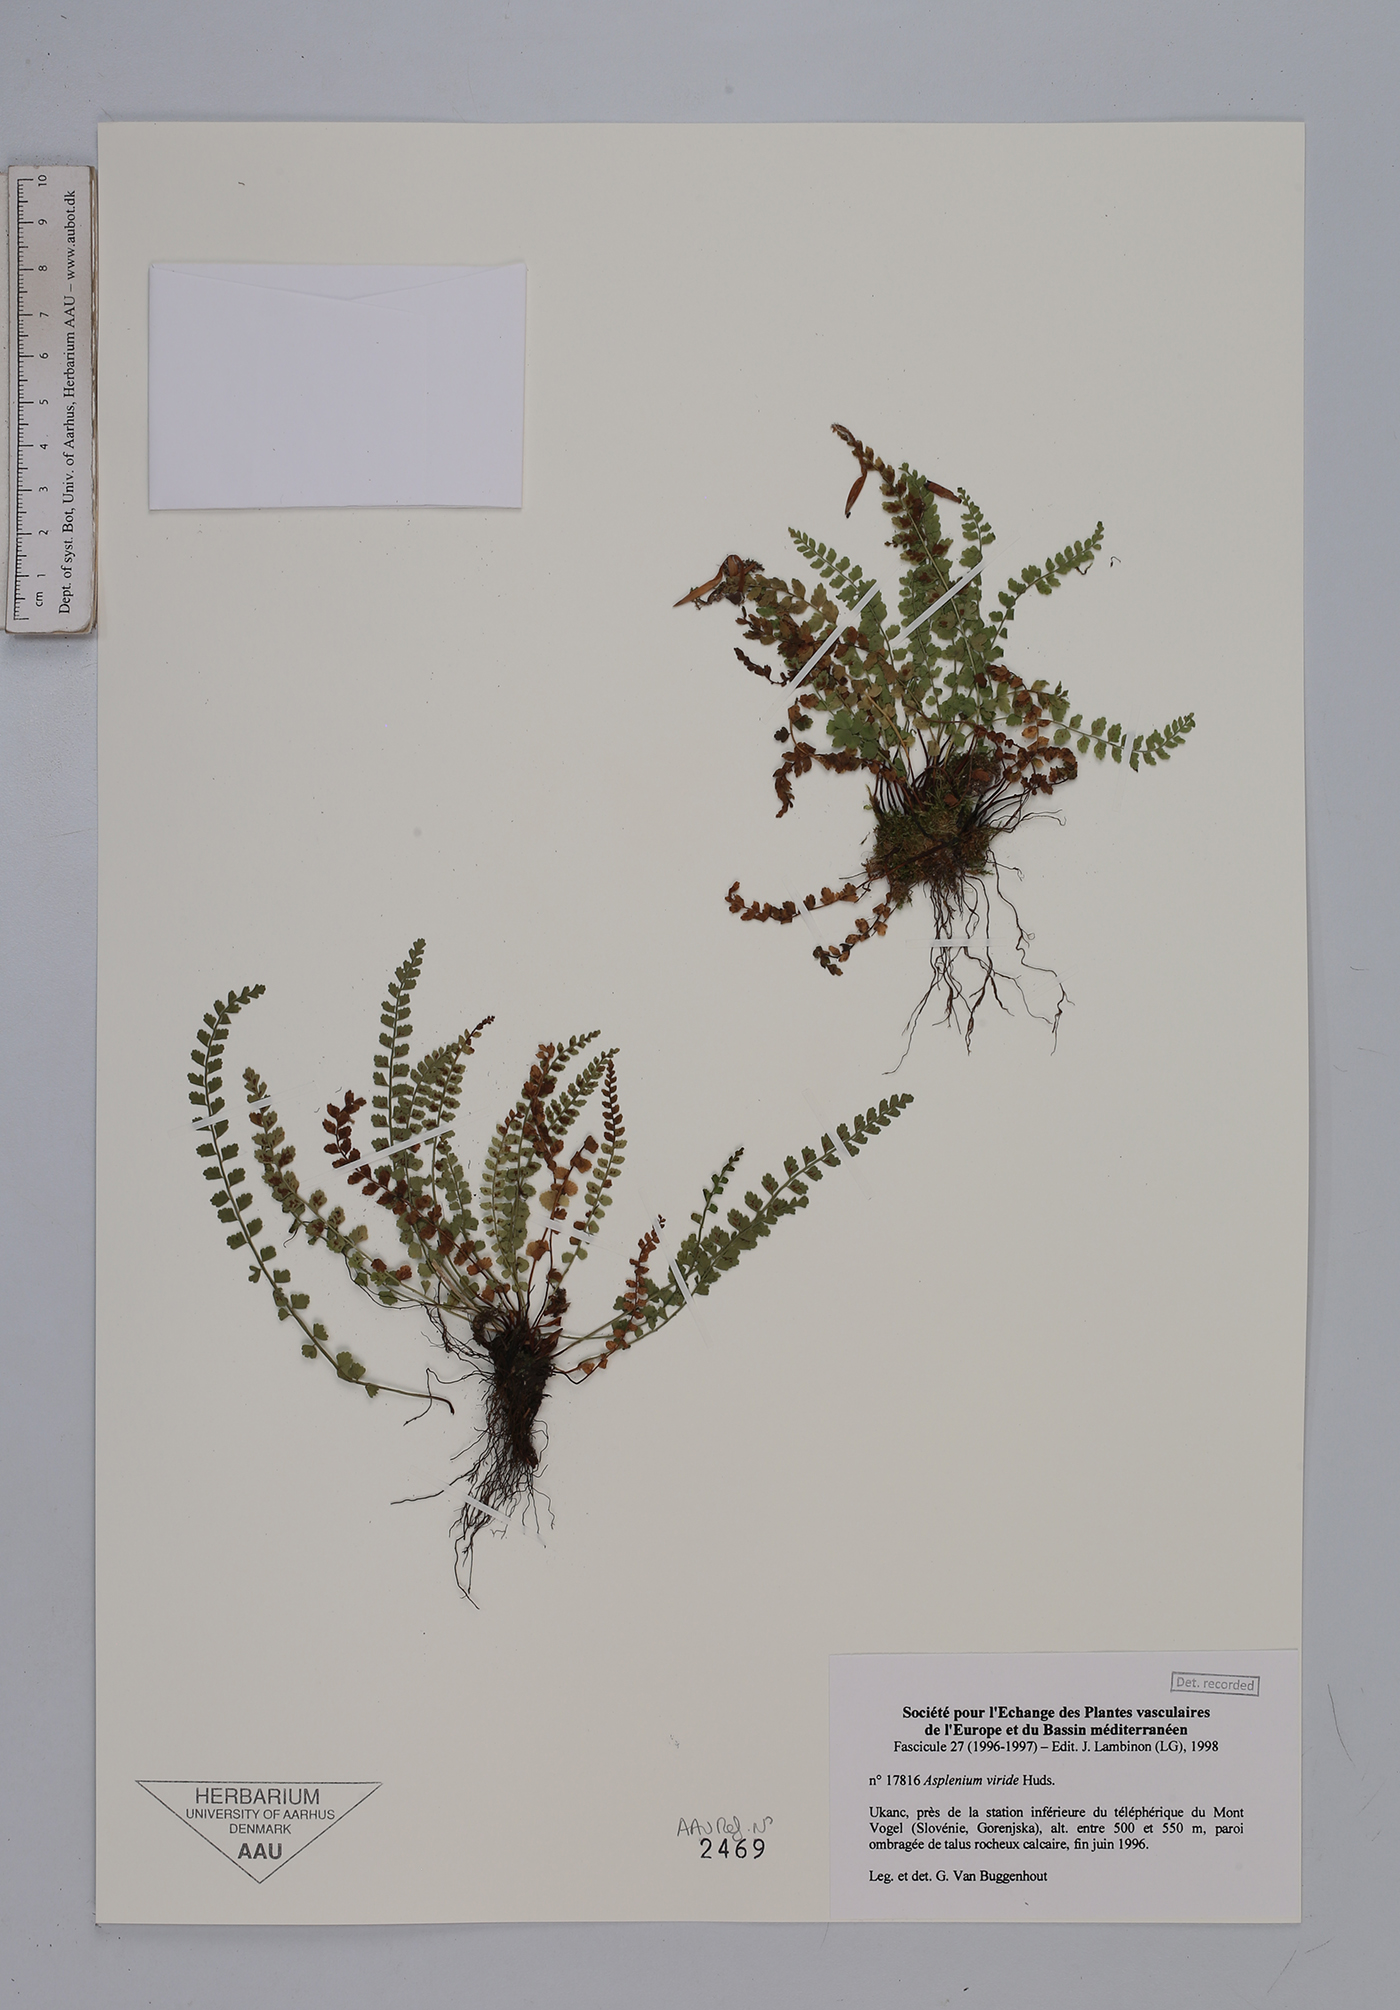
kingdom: Plantae
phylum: Tracheophyta
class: Polypodiopsida
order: Polypodiales
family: Aspleniaceae
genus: Asplenium
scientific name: Asplenium viride
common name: Green spleenwort
